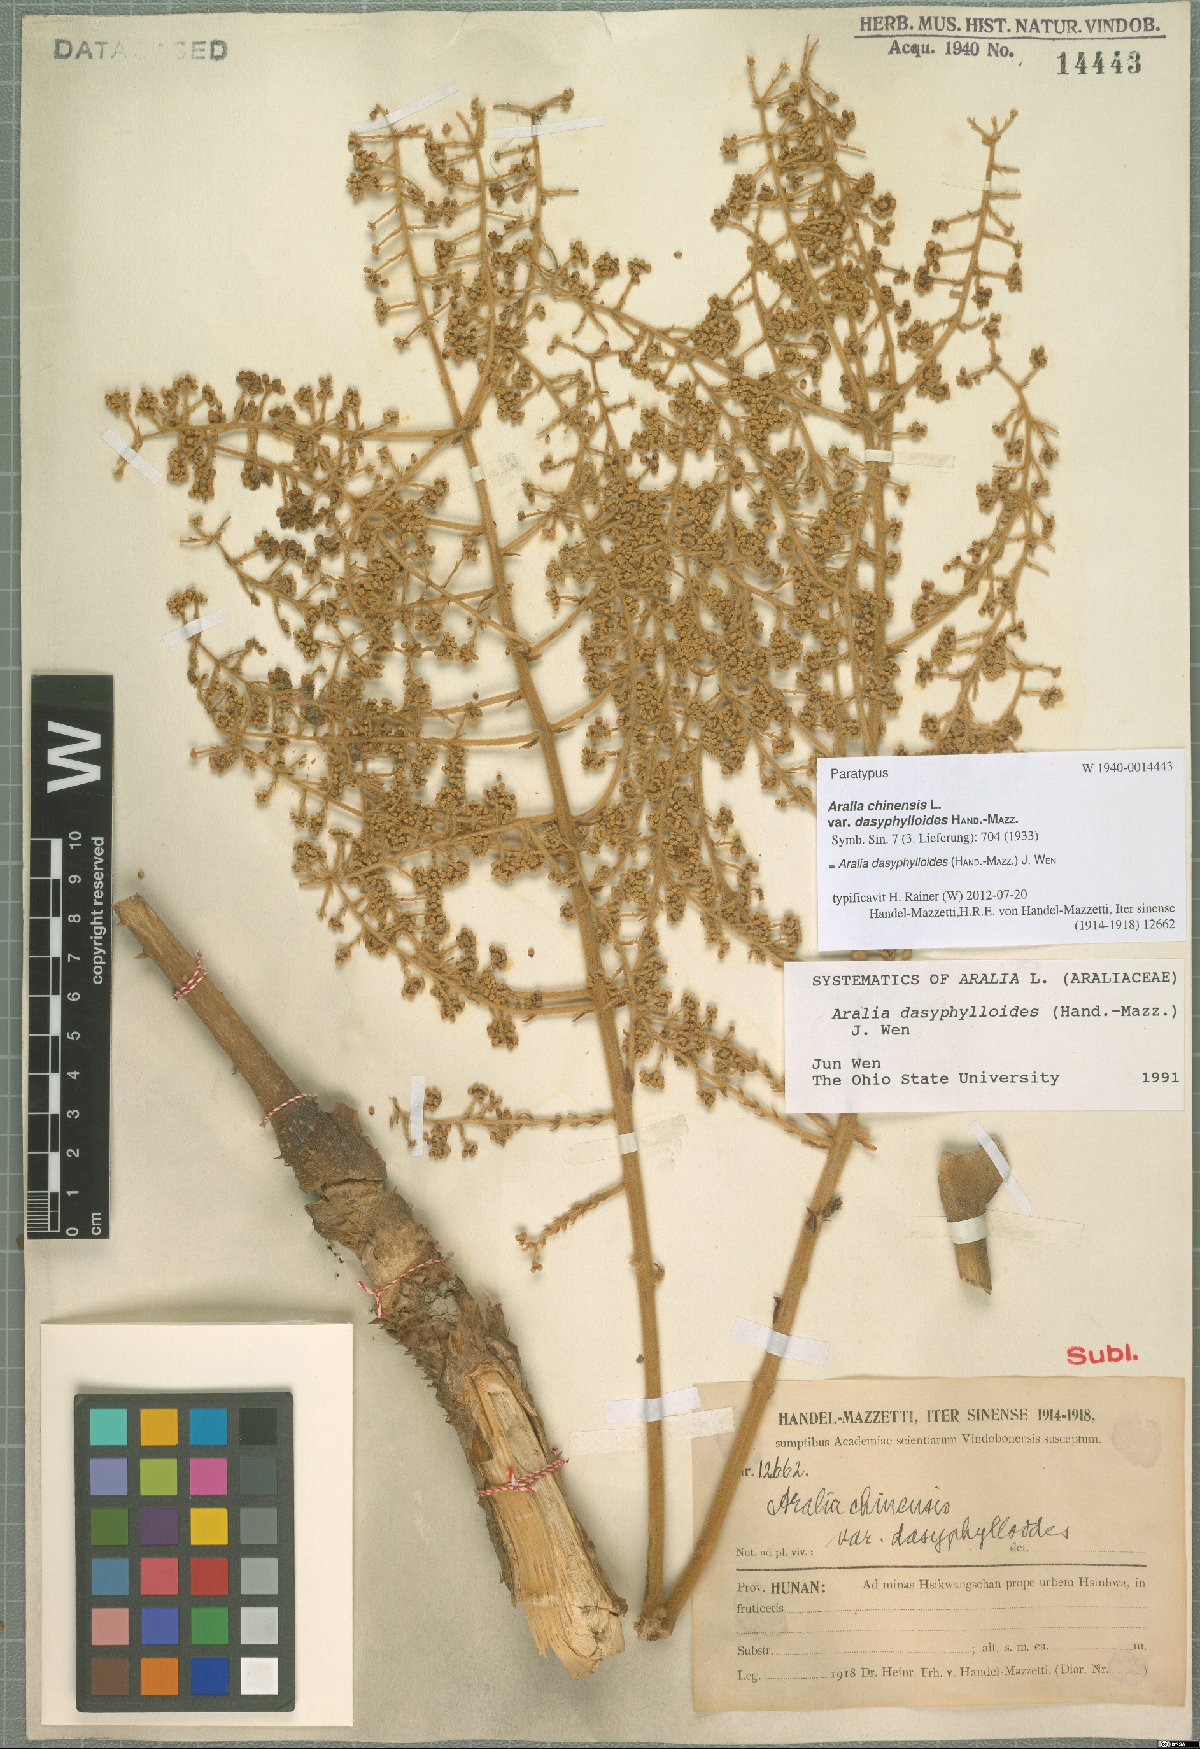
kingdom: Plantae
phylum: Tracheophyta
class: Magnoliopsida
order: Apiales
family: Araliaceae
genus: Aralia
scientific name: Aralia dasyphylloides
